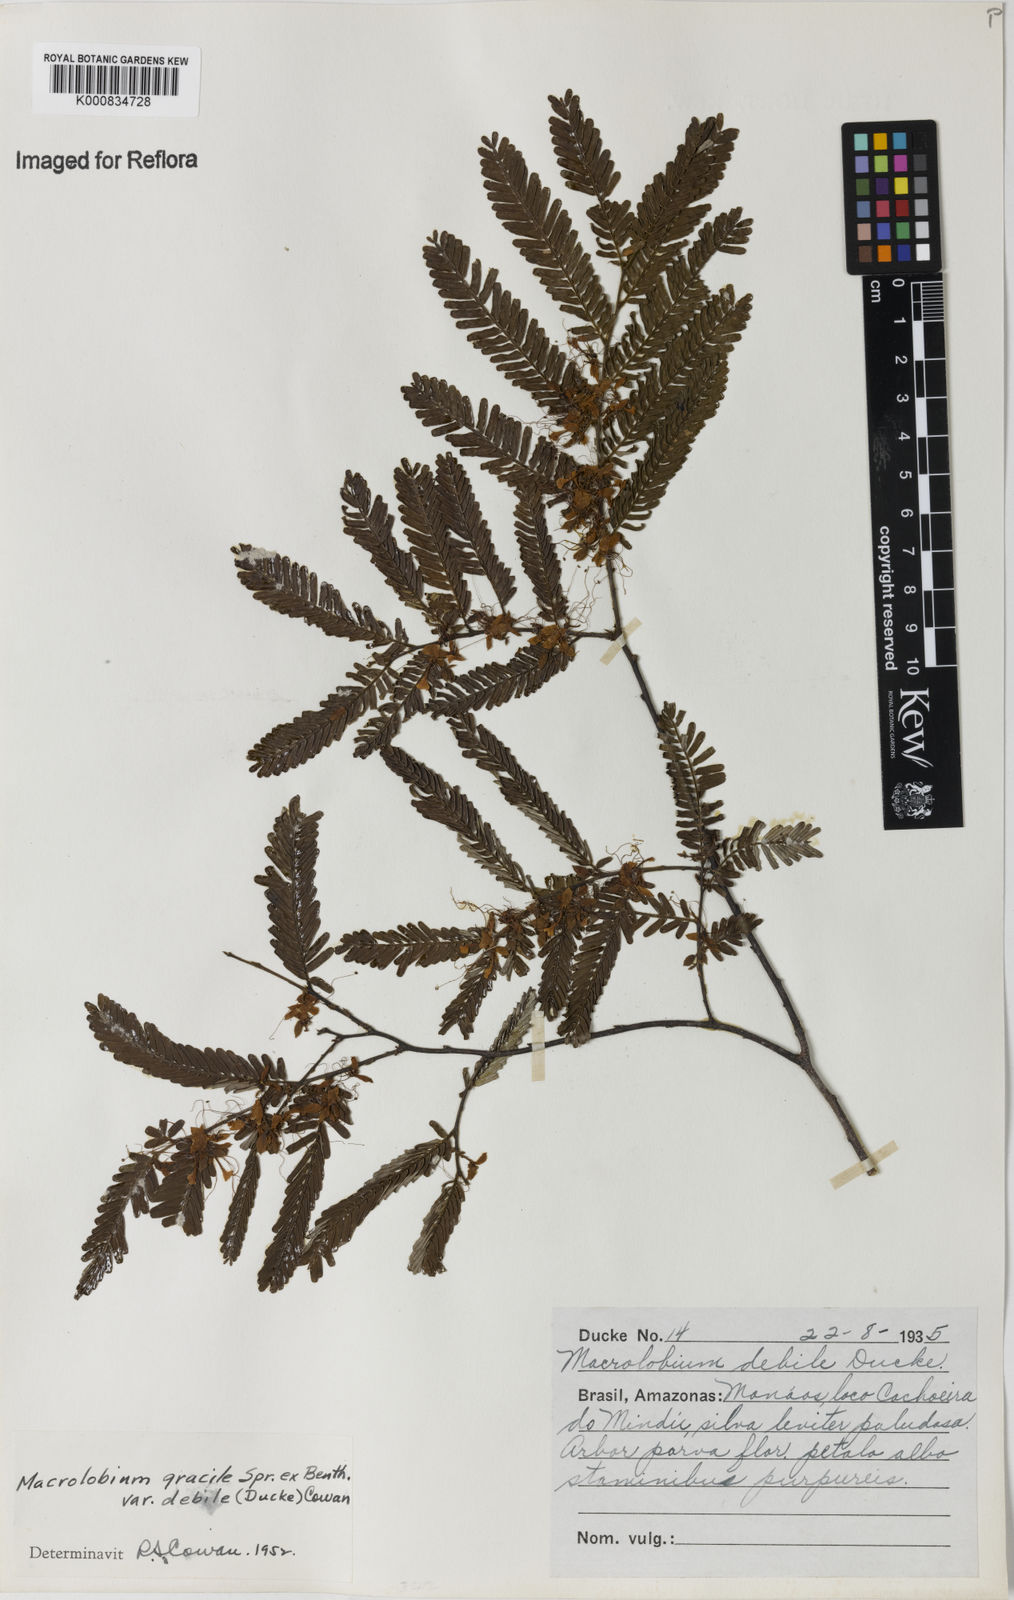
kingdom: Plantae
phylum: Tracheophyta
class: Magnoliopsida
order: Fabales
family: Fabaceae
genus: Macrolobium
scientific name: Macrolobium gracile
